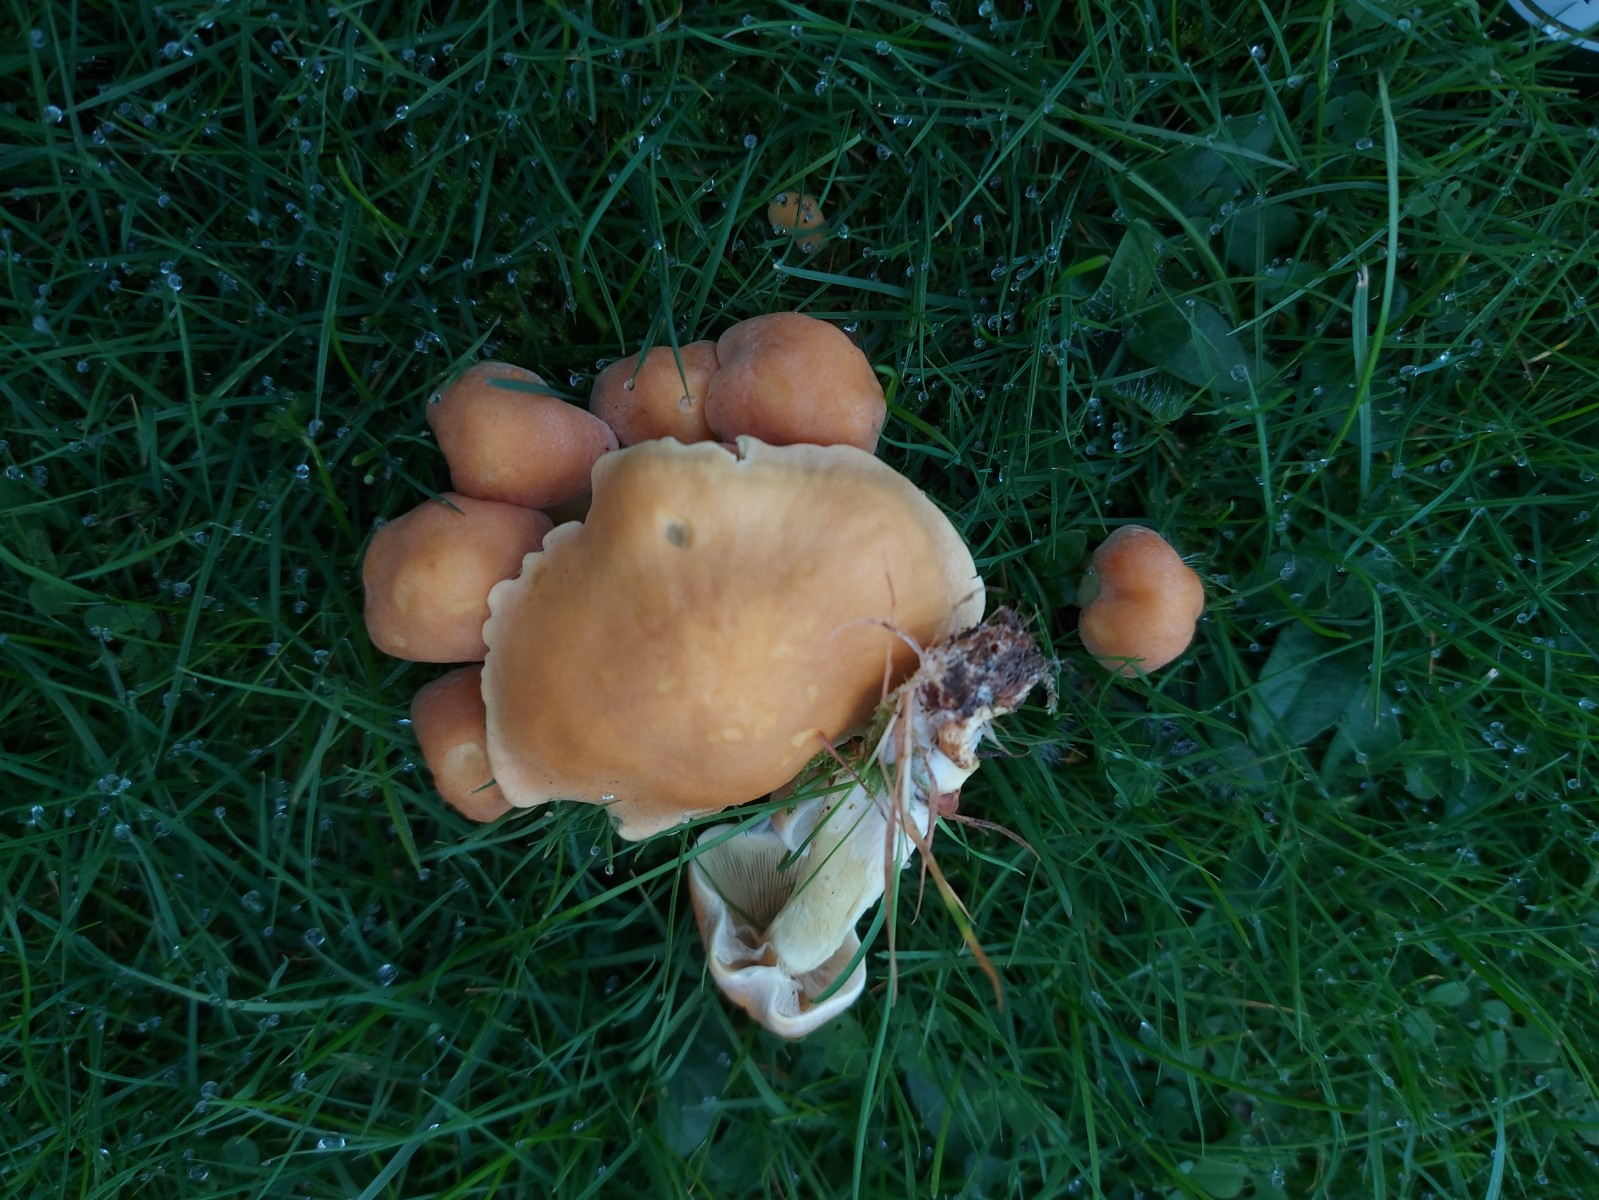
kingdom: Fungi
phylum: Basidiomycota
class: Agaricomycetes
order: Agaricales
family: Strophariaceae
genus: Hypholoma
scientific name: Hypholoma
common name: svovlhat
